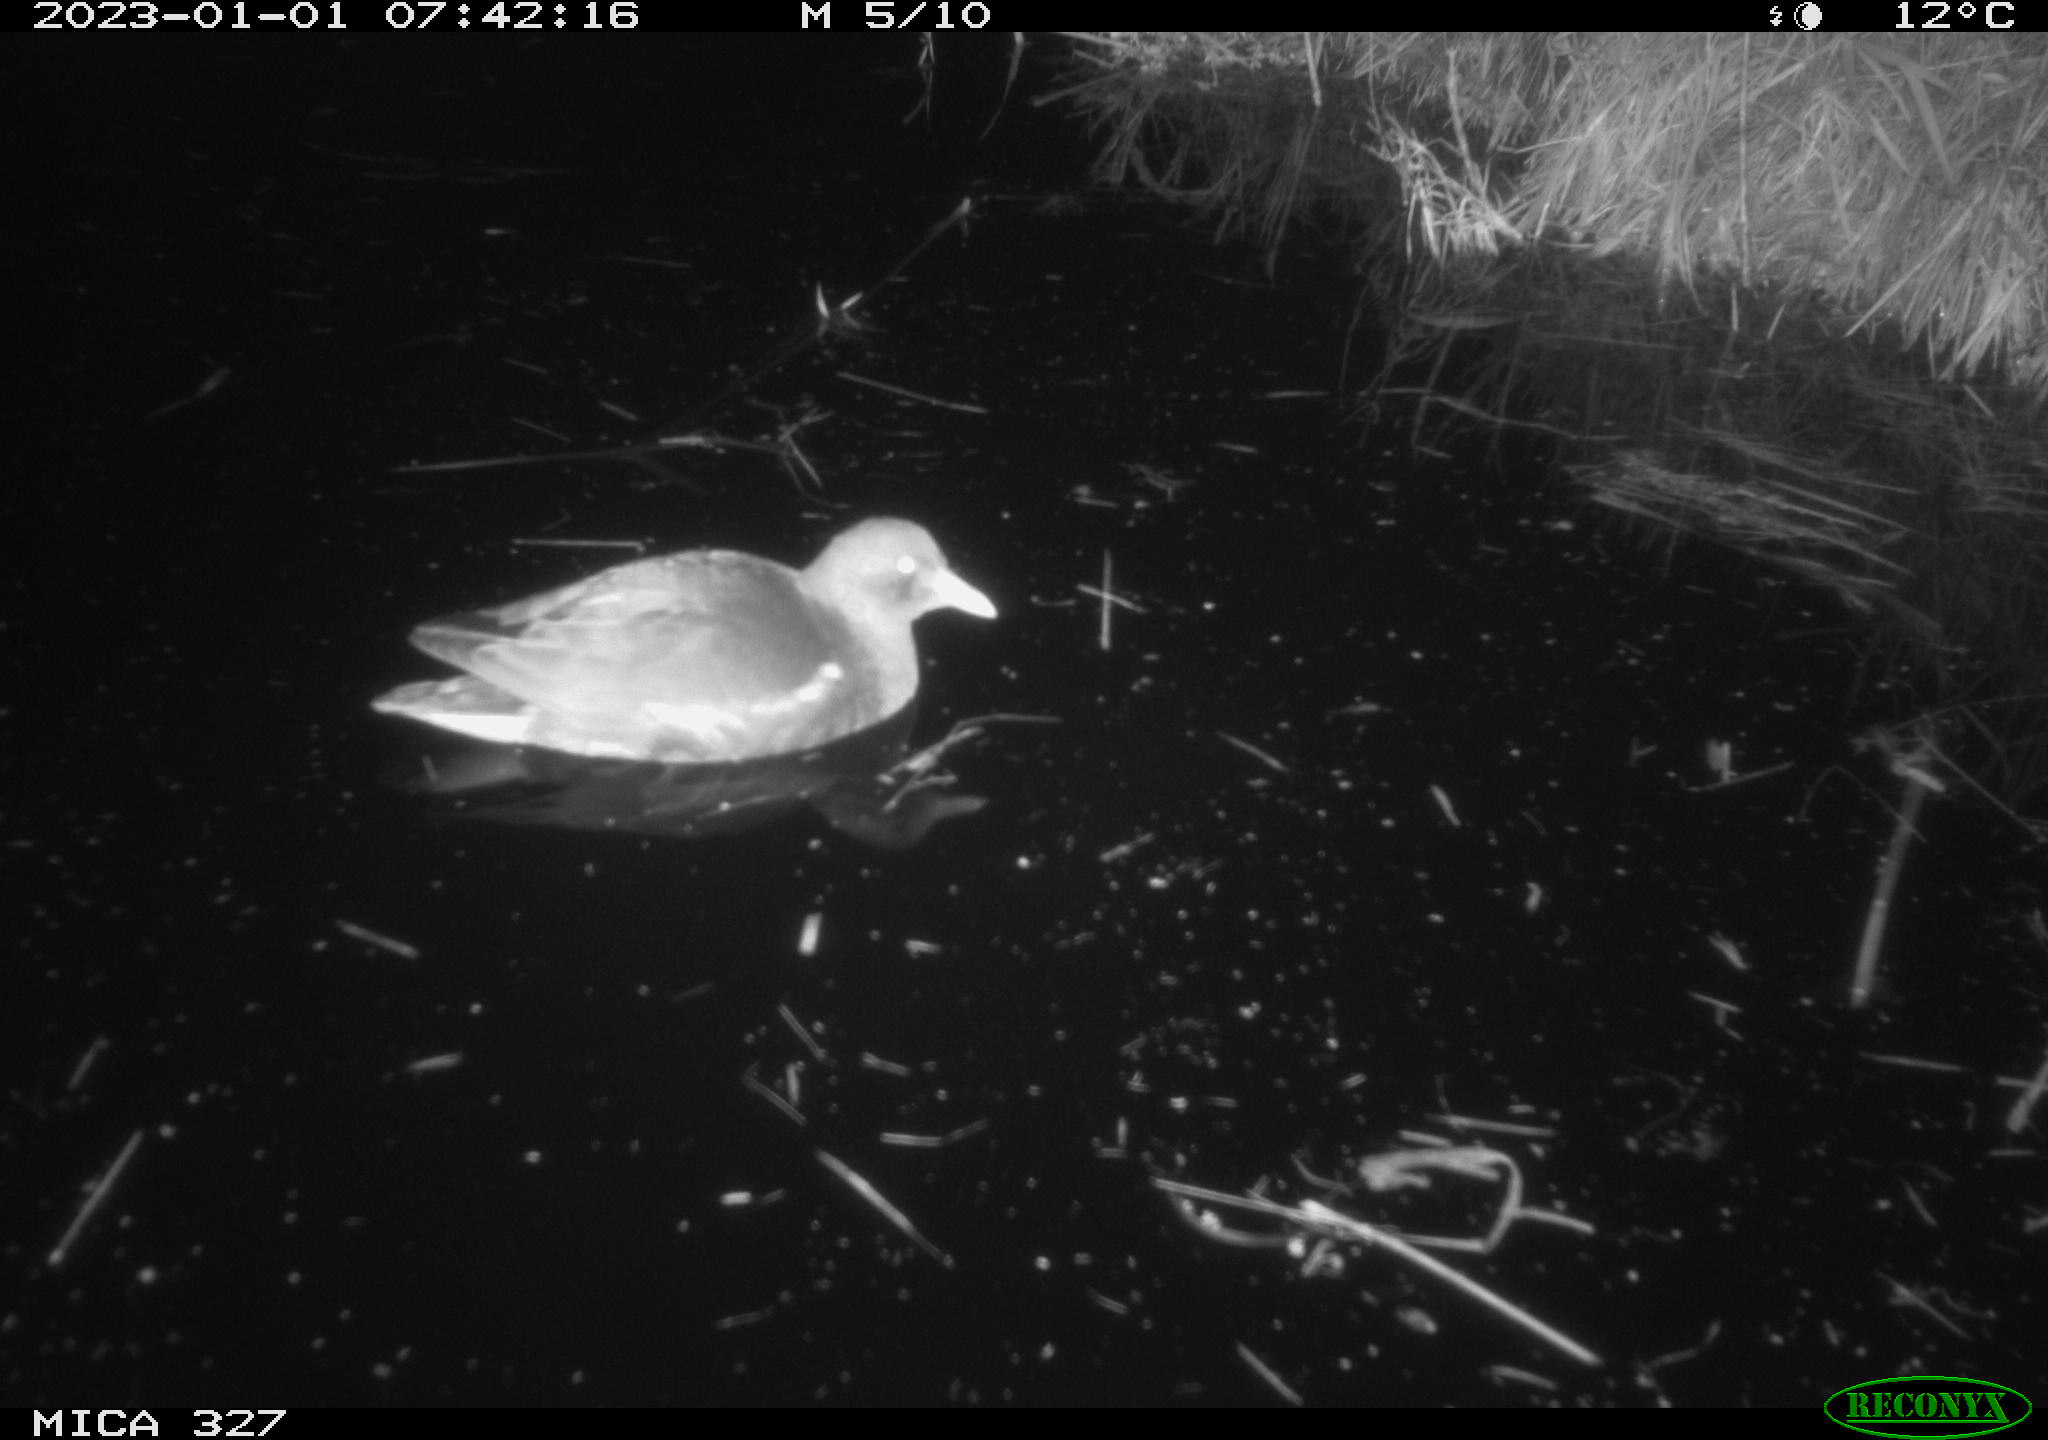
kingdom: Animalia
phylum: Chordata
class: Aves
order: Gruiformes
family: Rallidae
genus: Gallinula
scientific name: Gallinula chloropus
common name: Common moorhen
